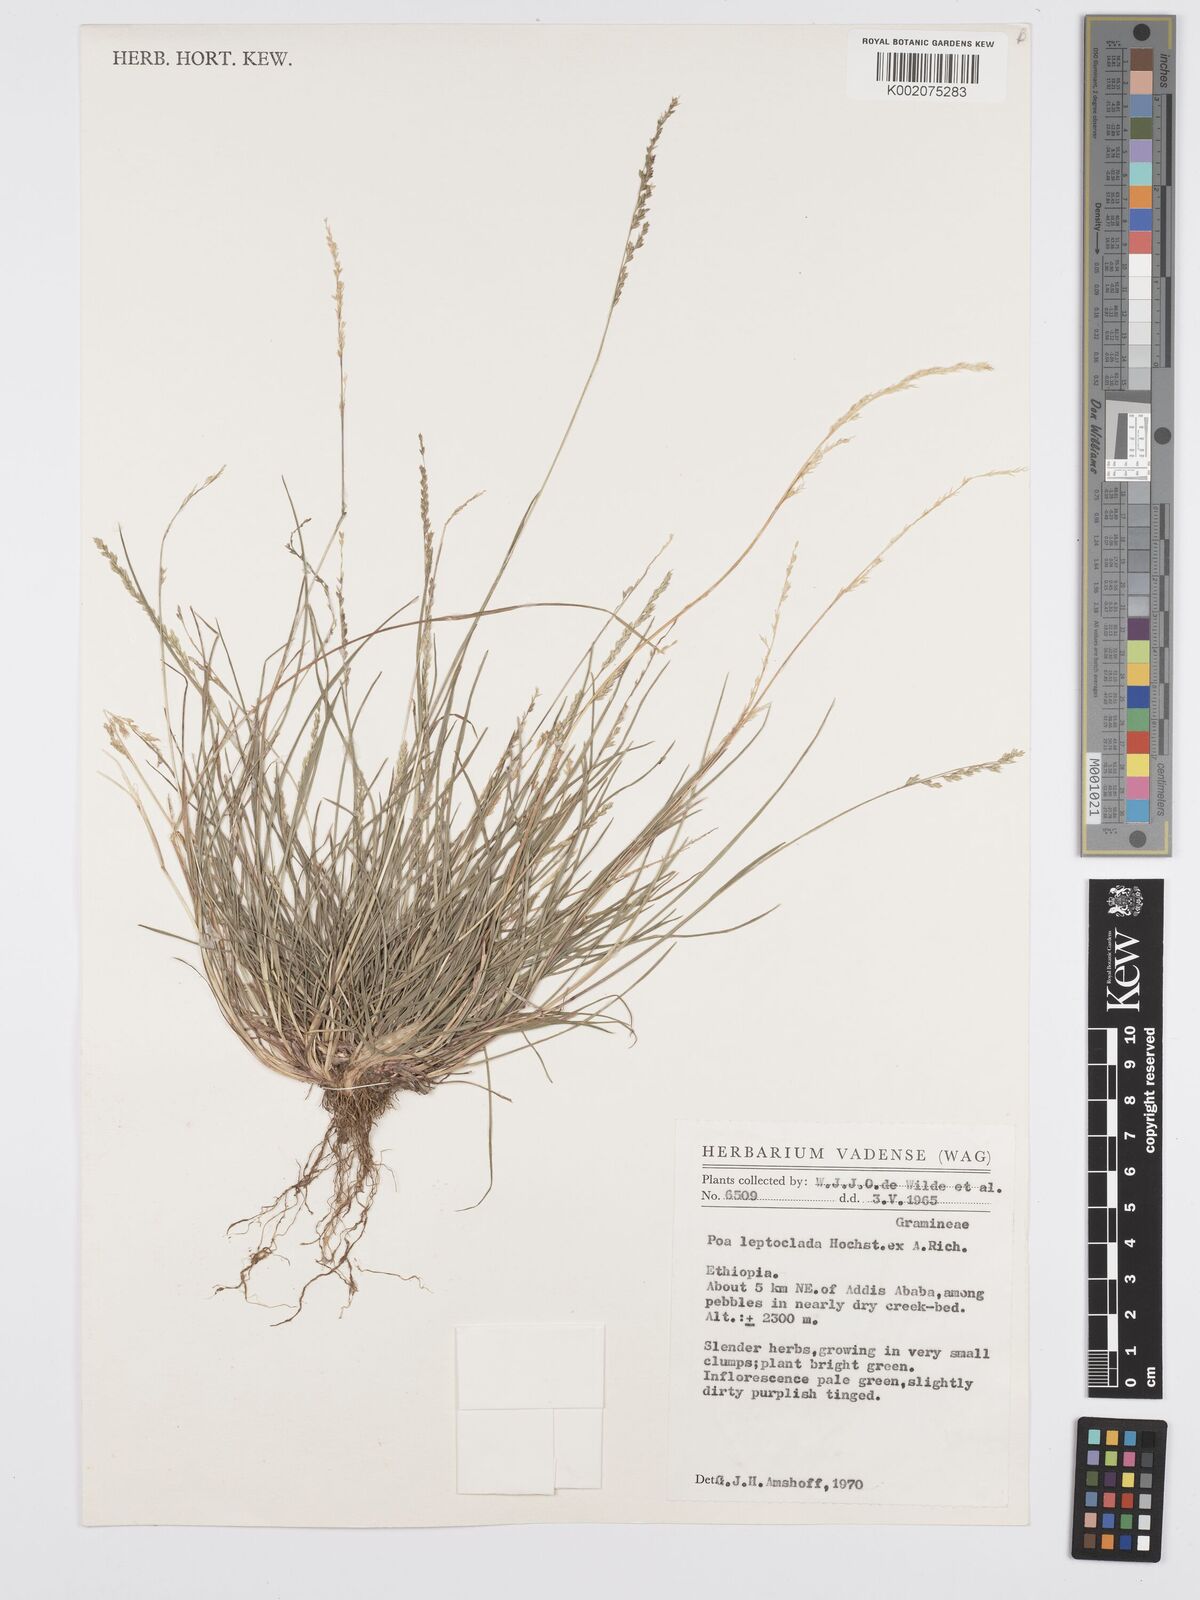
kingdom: Plantae
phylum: Tracheophyta
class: Liliopsida
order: Poales
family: Poaceae
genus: Poa
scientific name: Poa leptoclada
